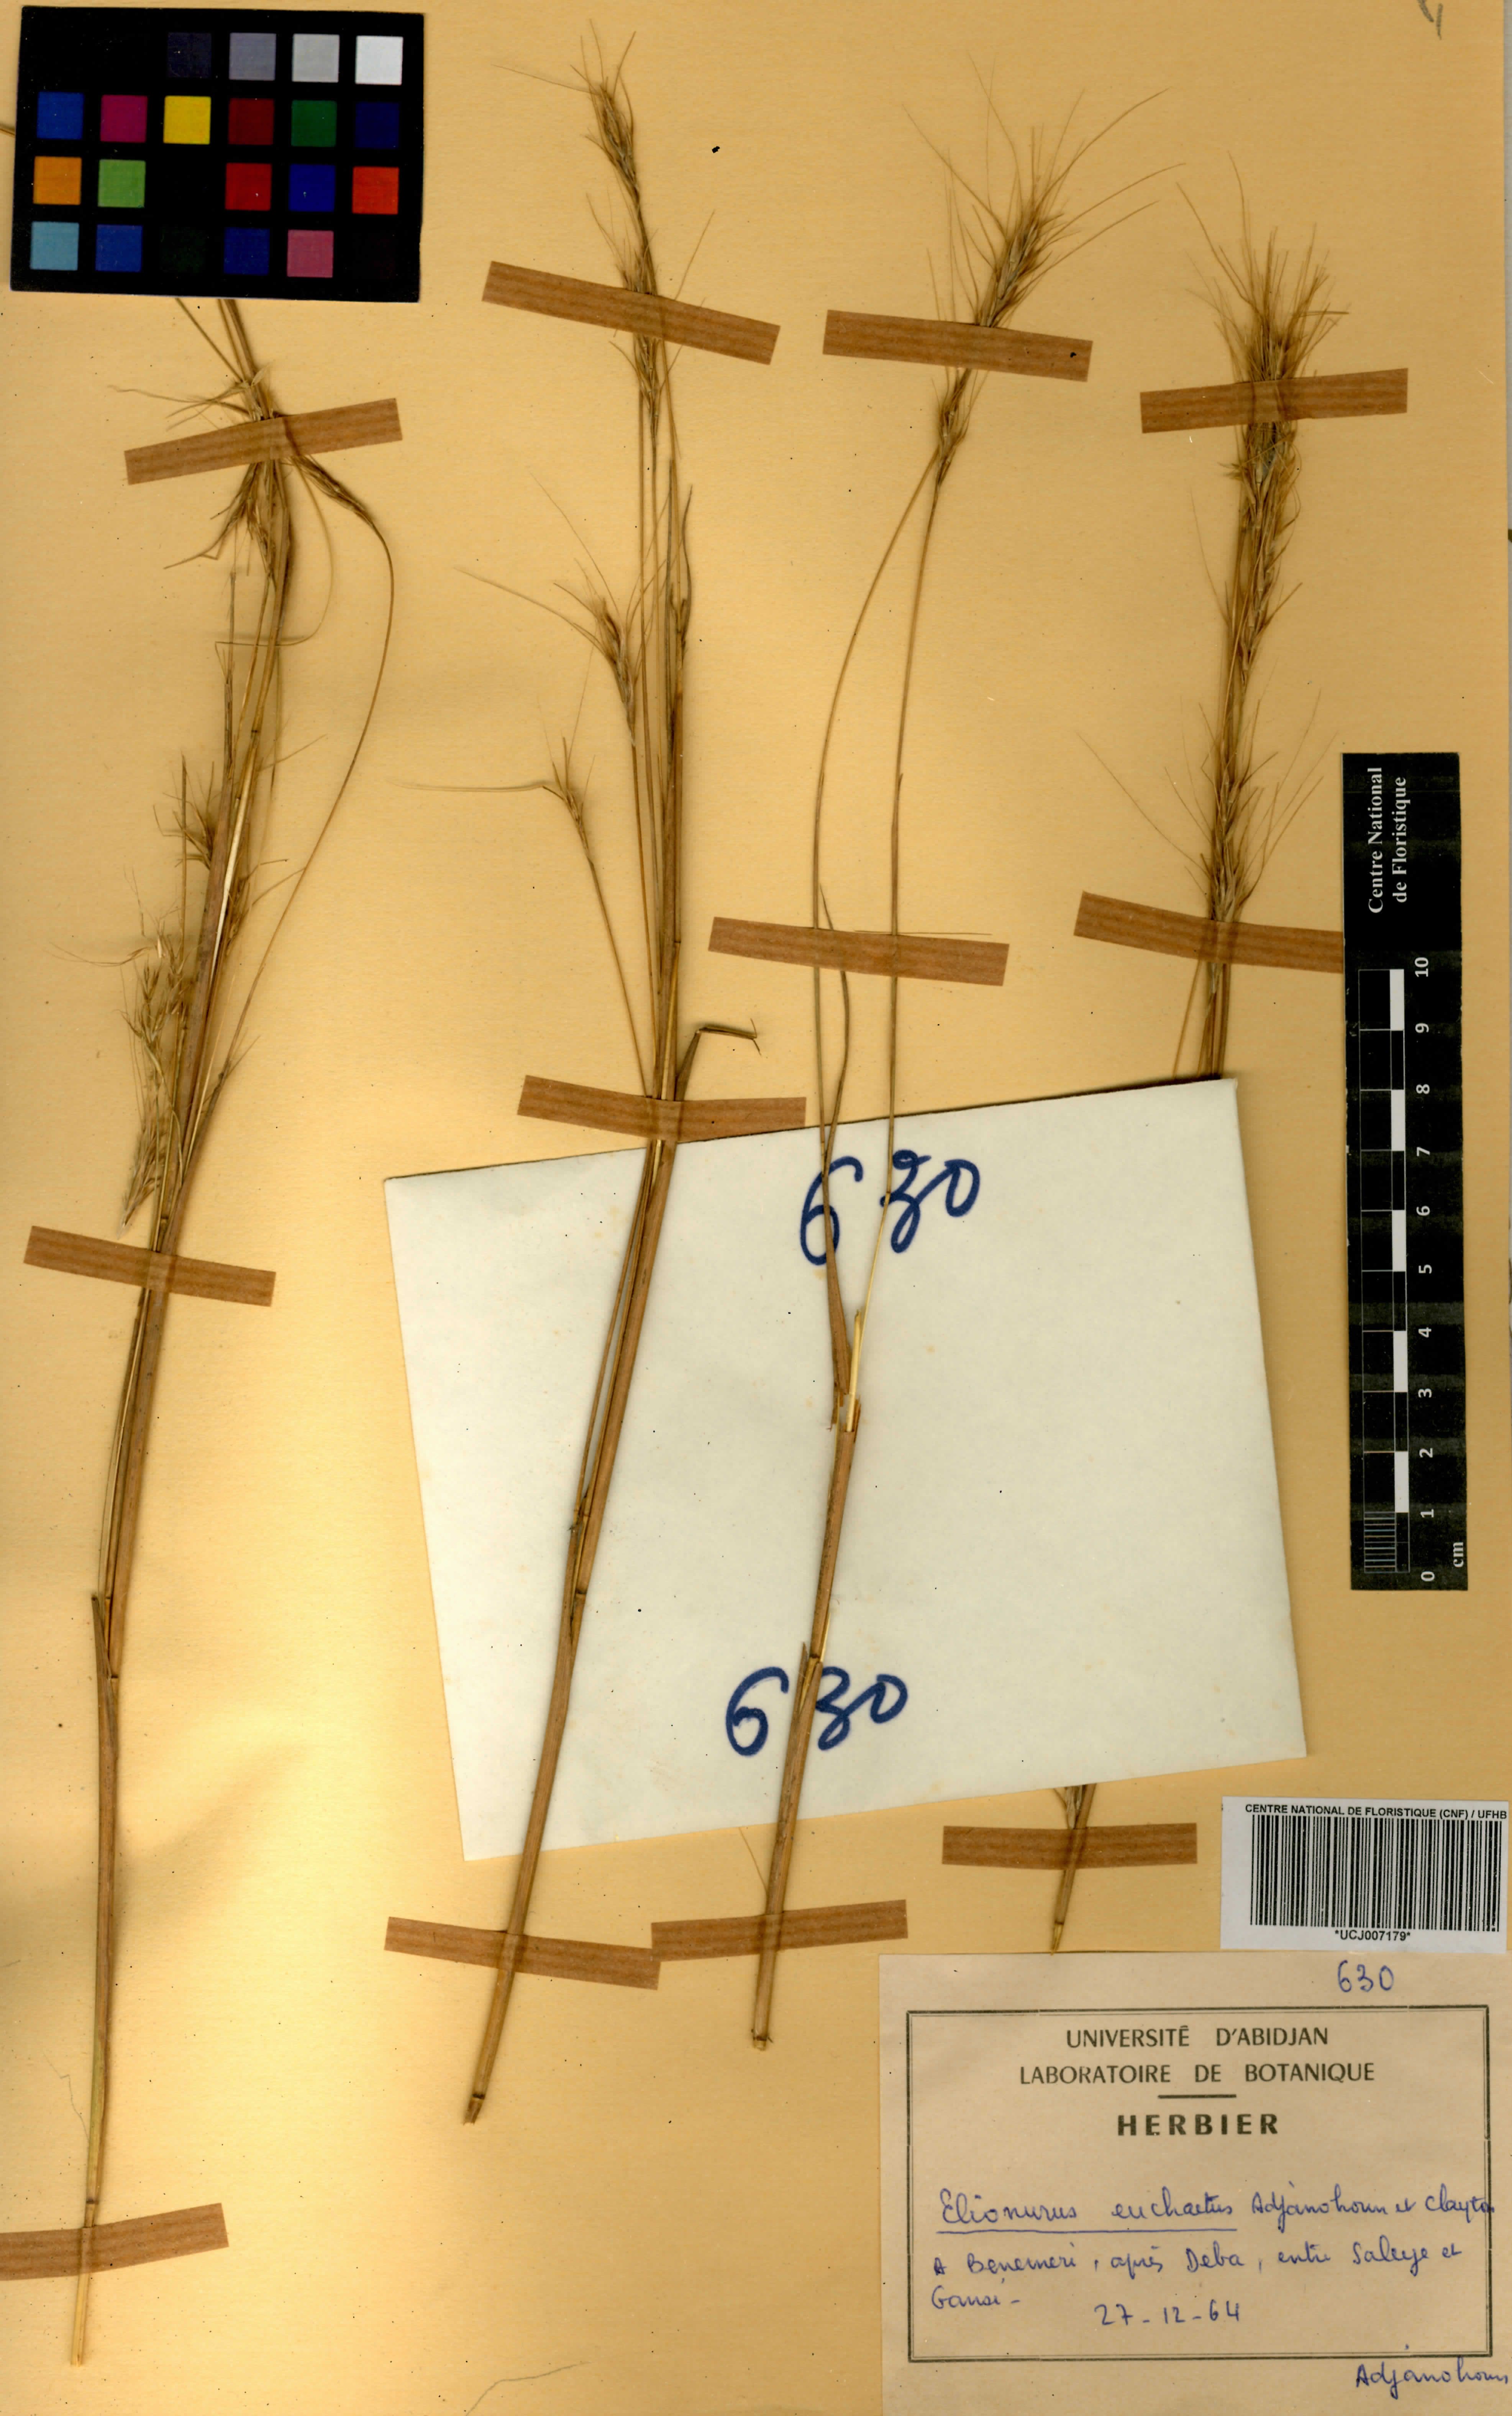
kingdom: Plantae
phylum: Tracheophyta
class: Liliopsida
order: Poales
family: Poaceae
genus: Elionurus
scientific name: Elionurus euchaetus
